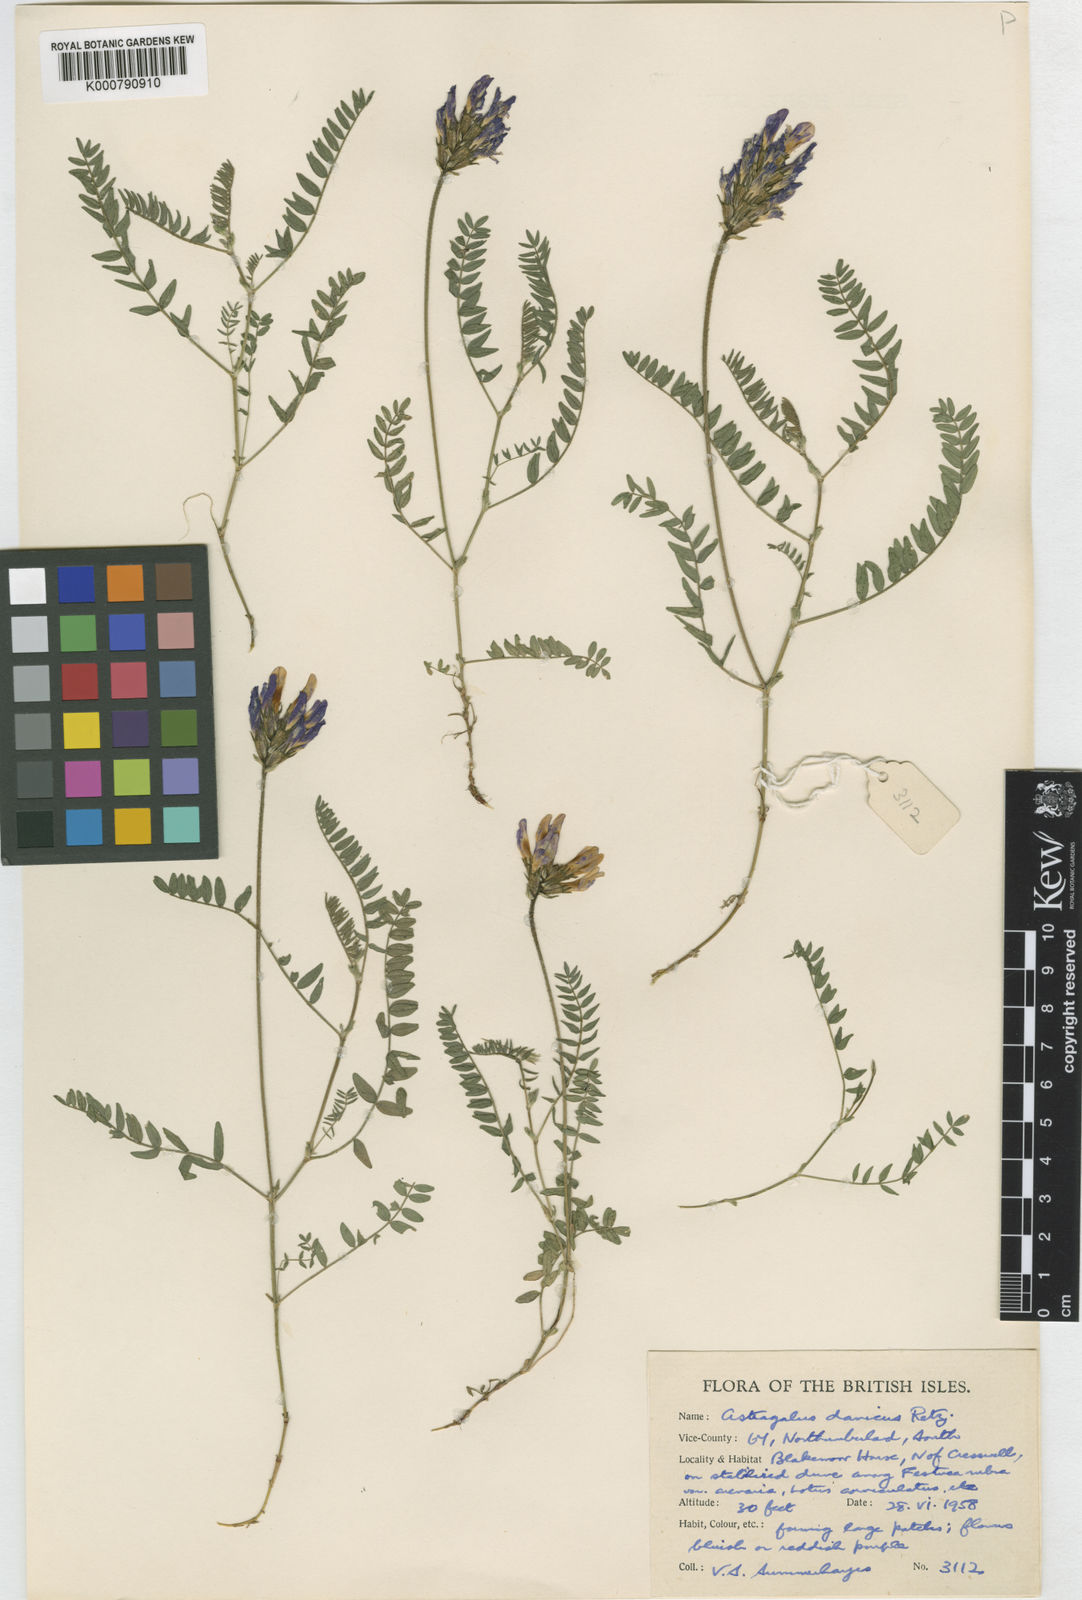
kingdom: Plantae
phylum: Tracheophyta
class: Magnoliopsida
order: Fabales
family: Fabaceae
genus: Astragalus
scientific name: Astragalus danicus
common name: Purple milk-vetch
